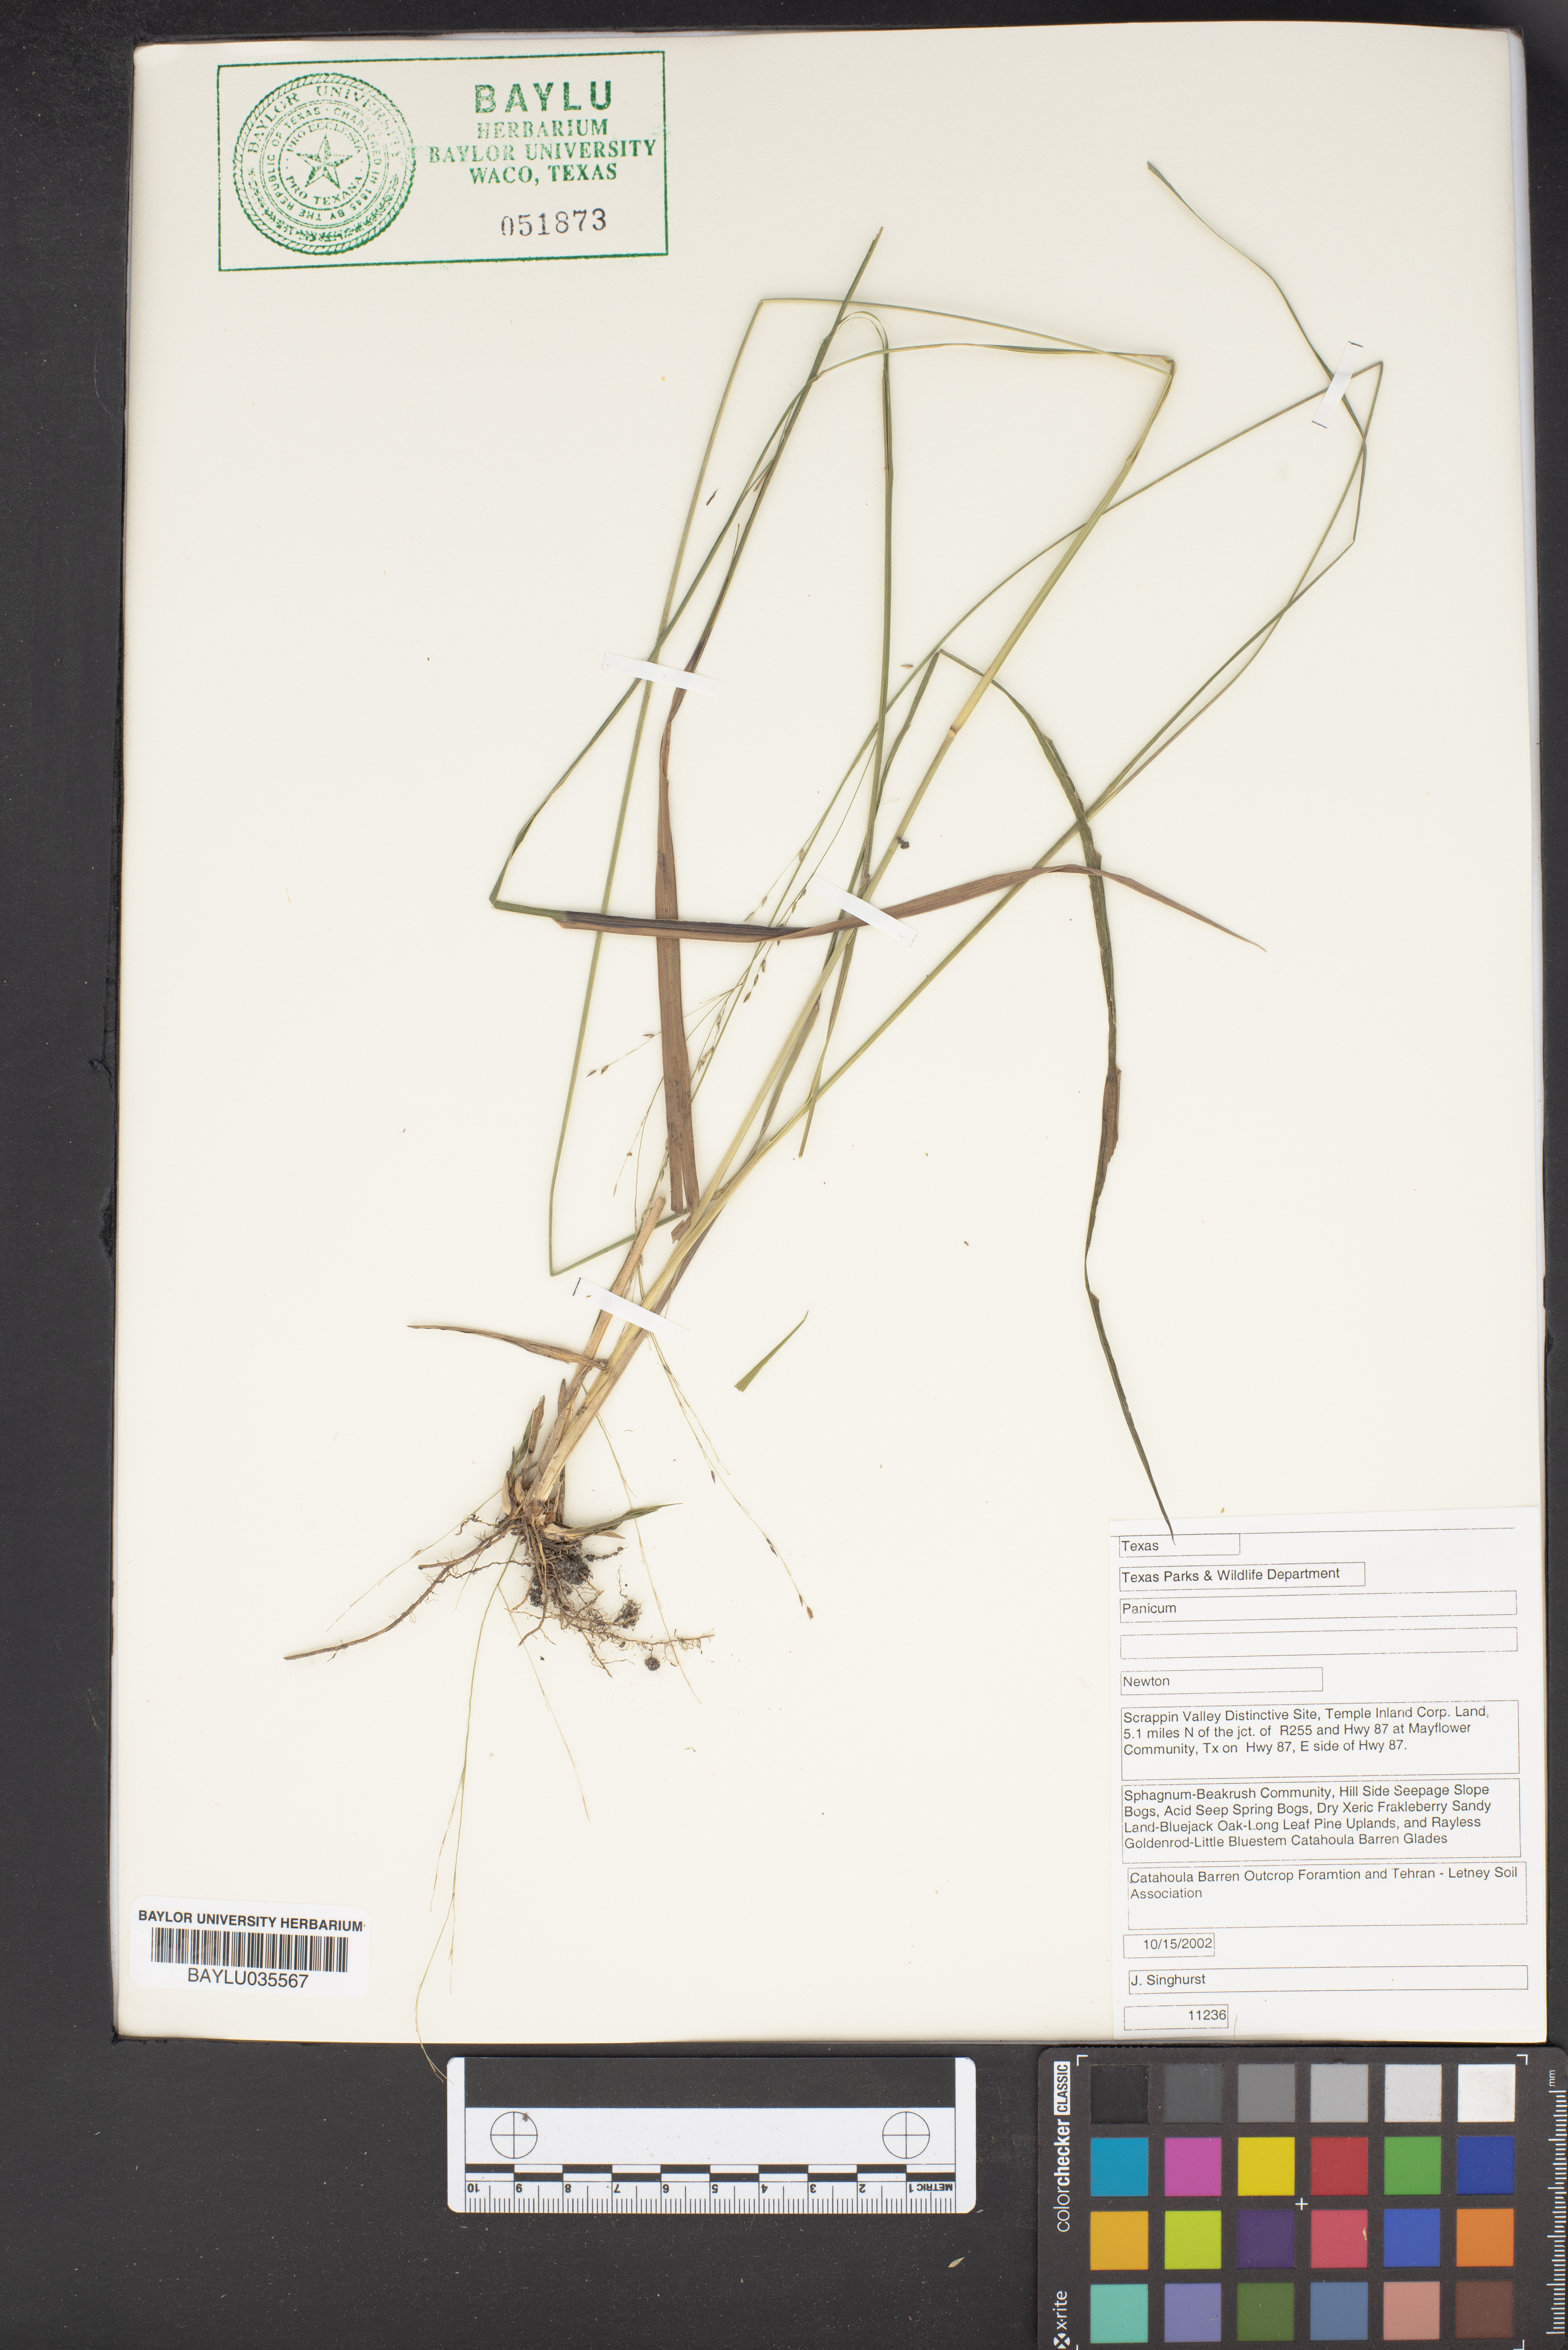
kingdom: Plantae
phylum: Tracheophyta
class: Liliopsida
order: Poales
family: Poaceae
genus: Panicum
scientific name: Panicum
